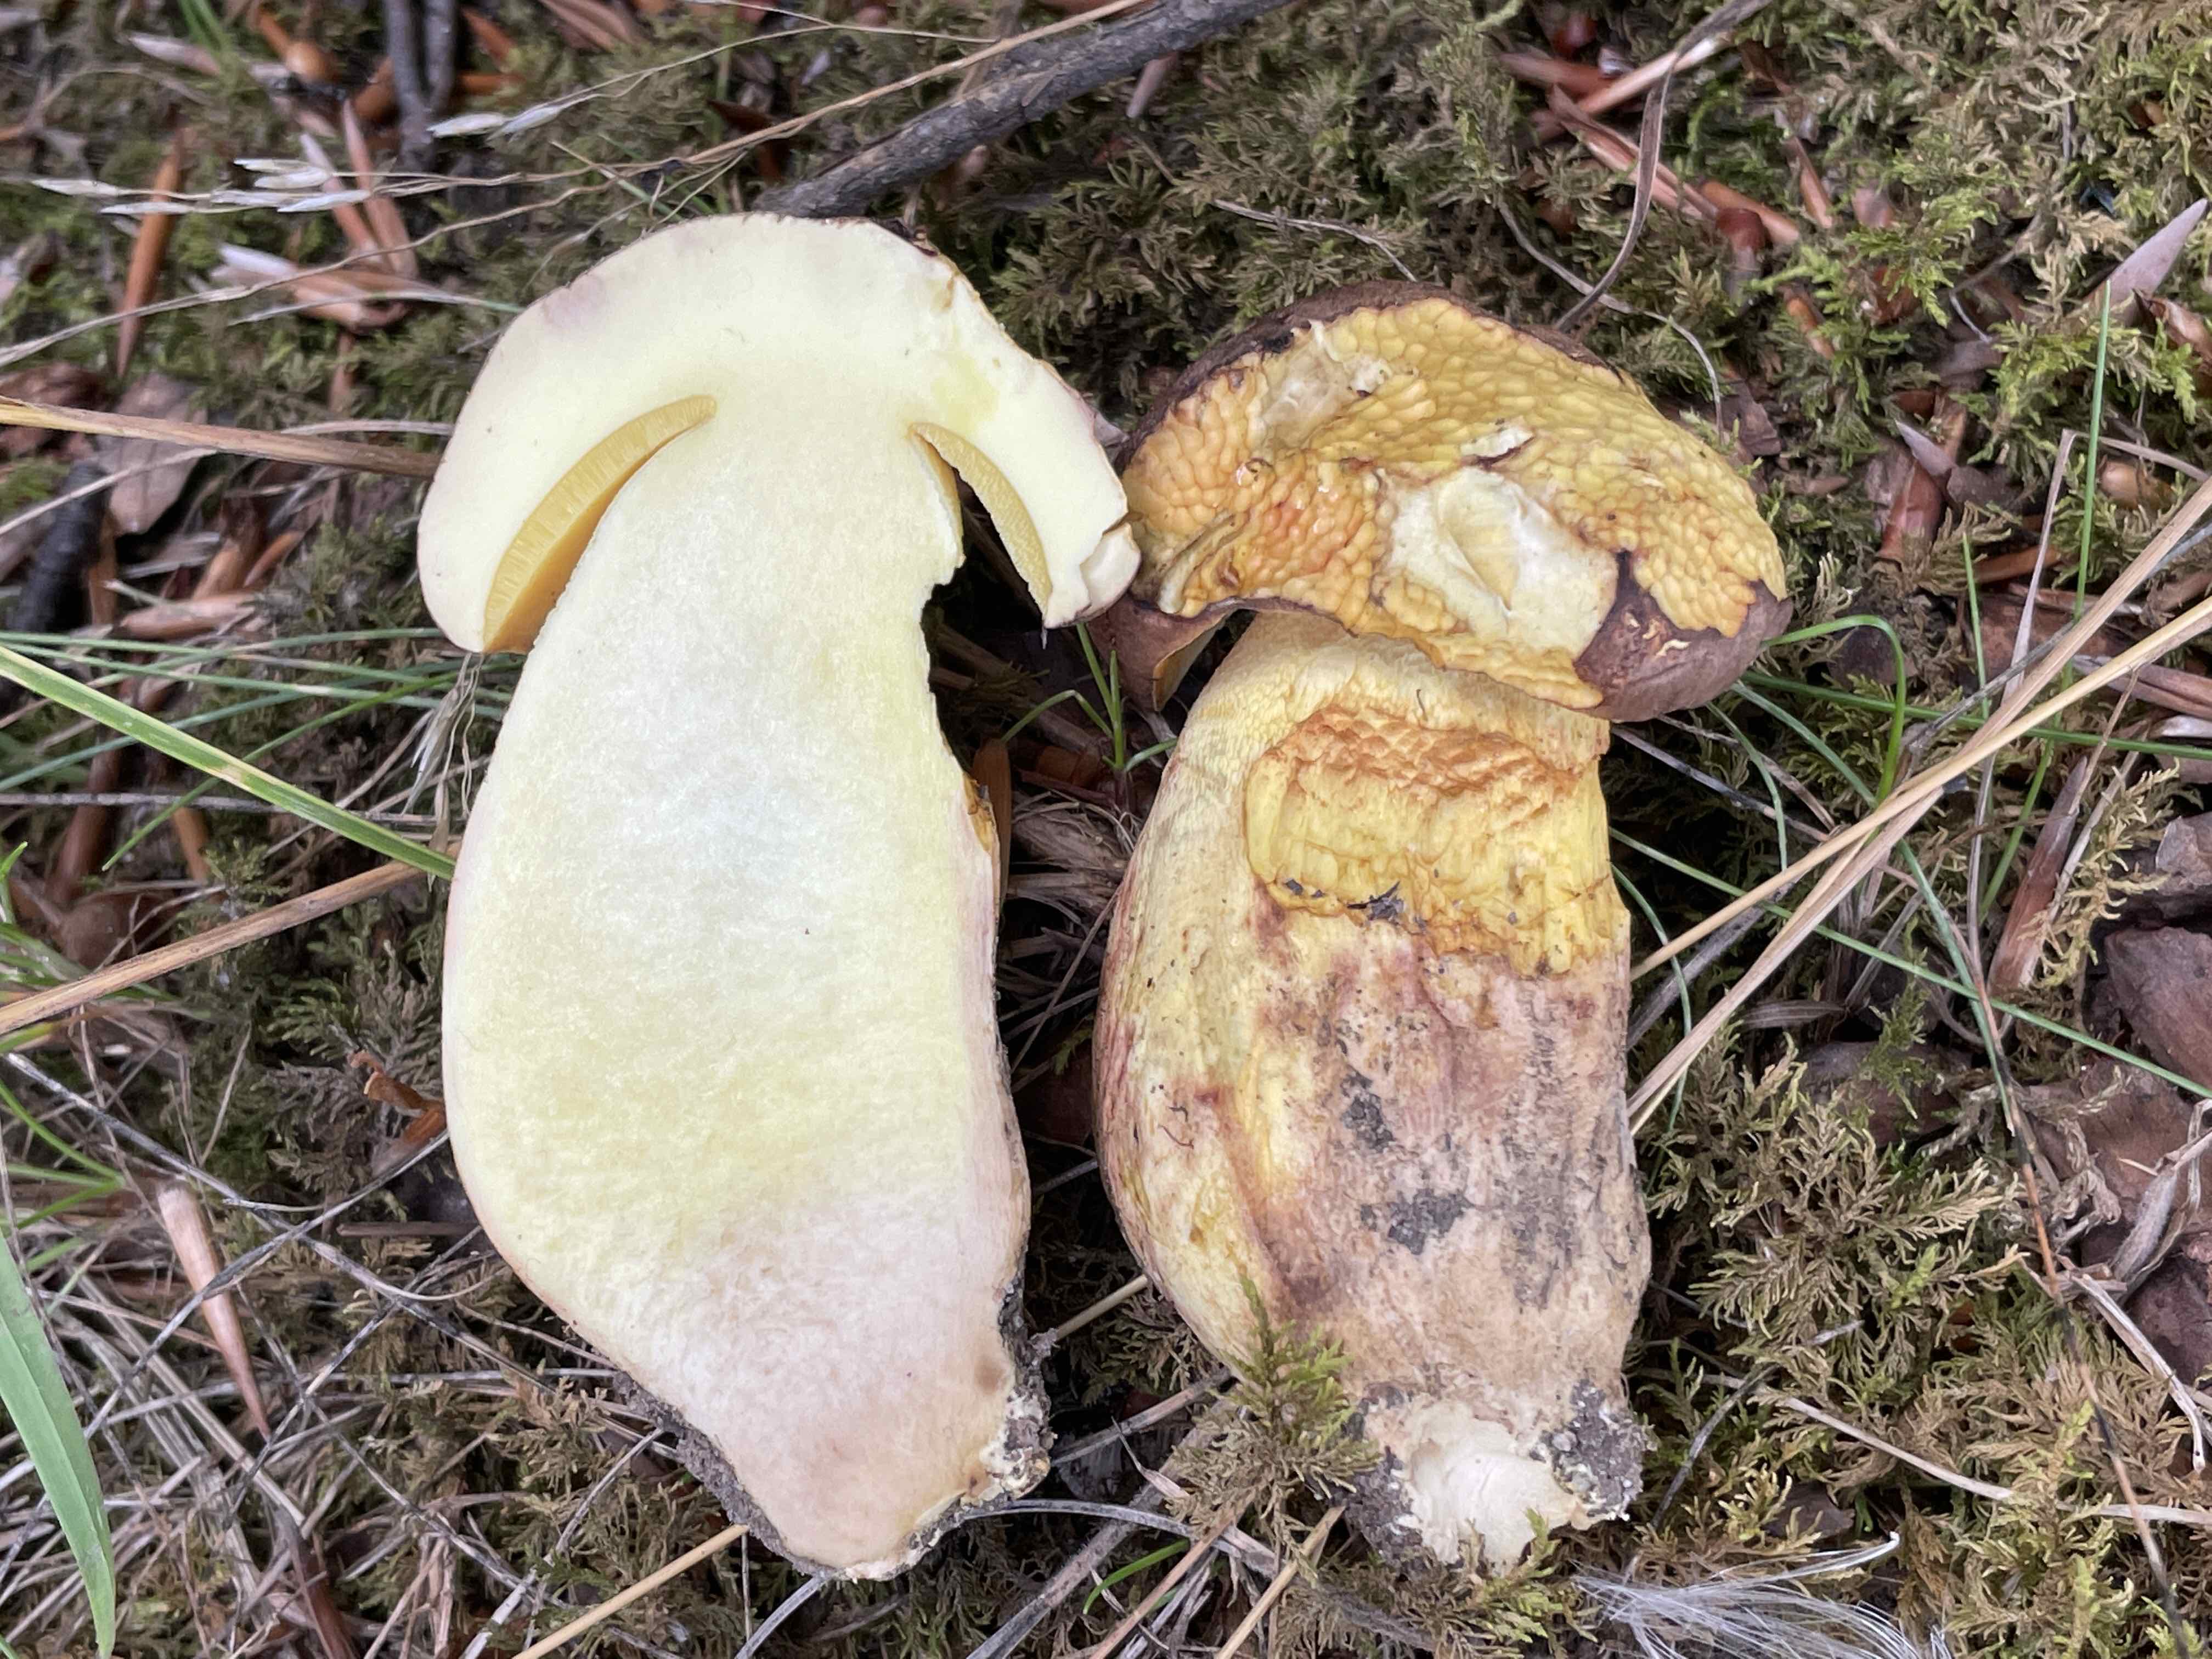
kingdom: Fungi
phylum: Basidiomycota
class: Agaricomycetes
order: Boletales
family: Boletaceae
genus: Butyriboletus
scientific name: Butyriboletus appendiculatus
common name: tenstokket rørhat
